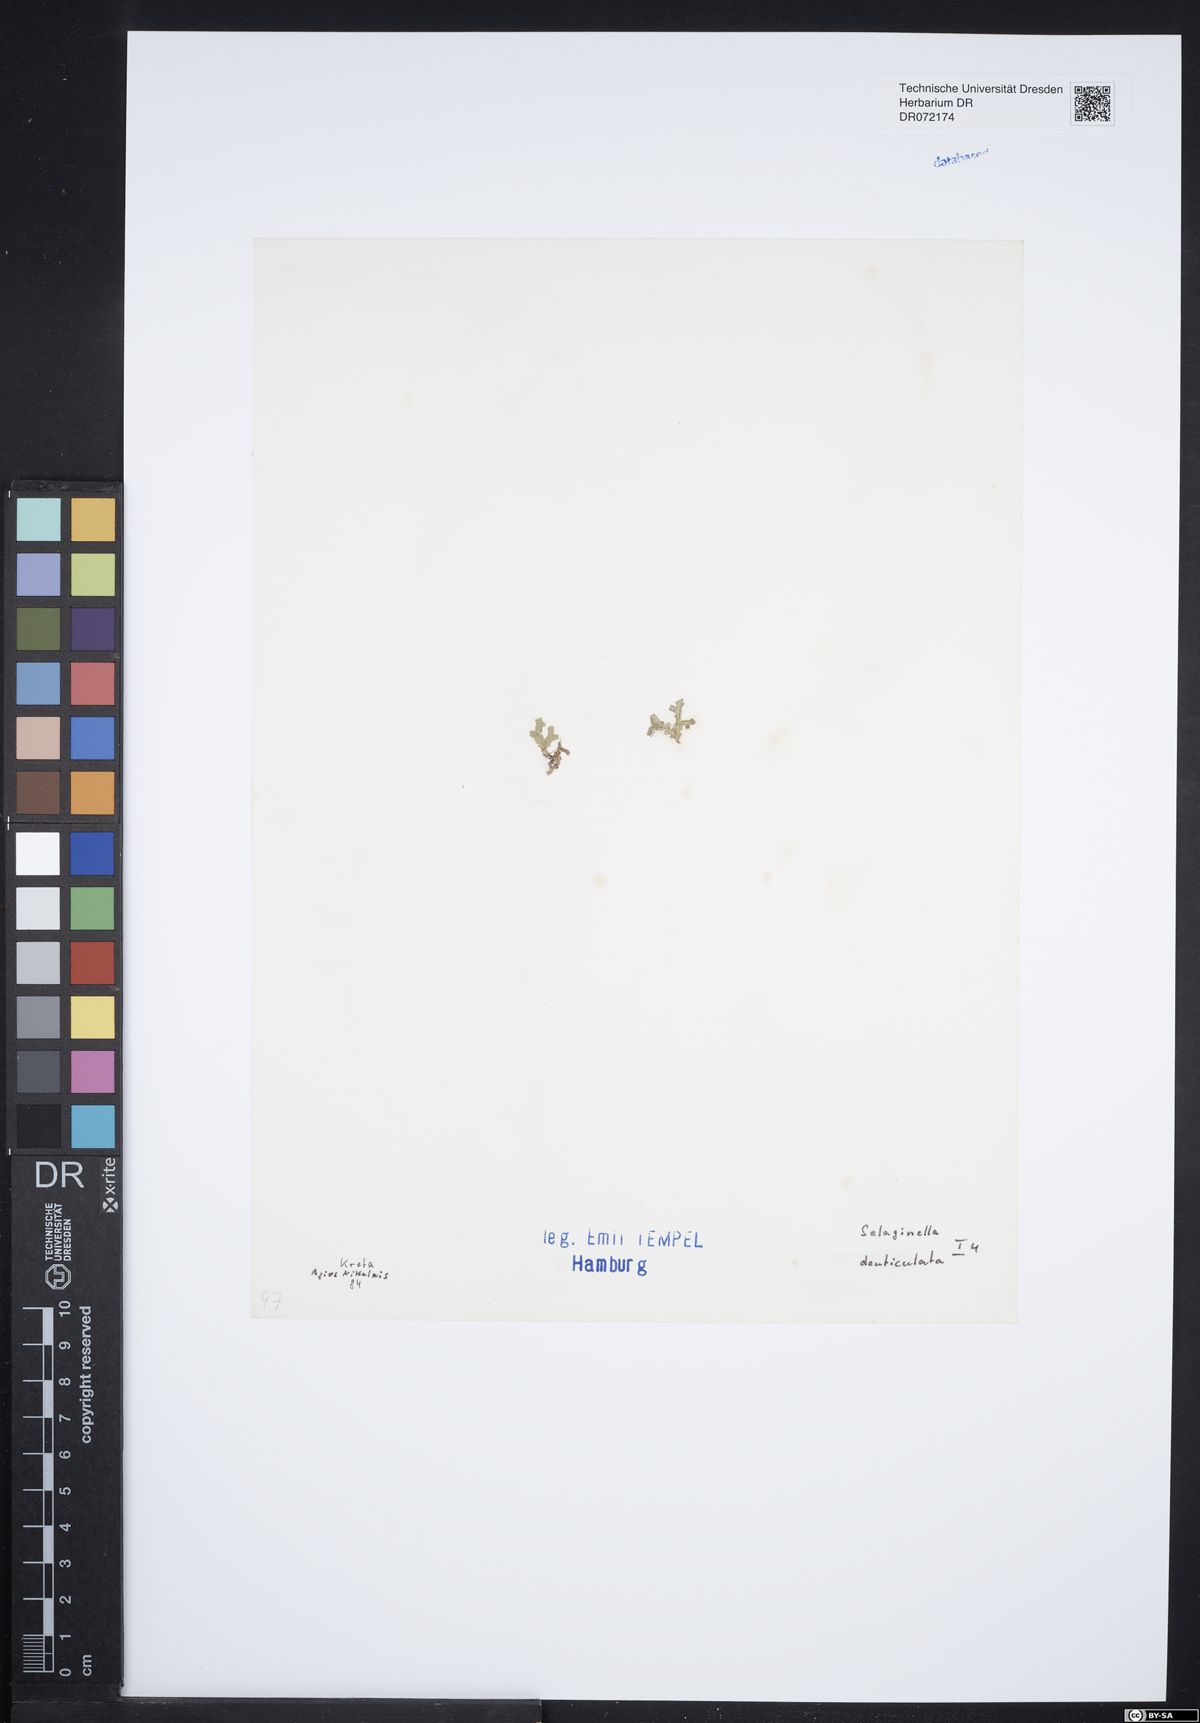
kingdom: Plantae
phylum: Tracheophyta
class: Lycopodiopsida
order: Selaginellales
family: Selaginellaceae
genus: Selaginella
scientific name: Selaginella denticulata
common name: Toothed-leaved clubmoss
